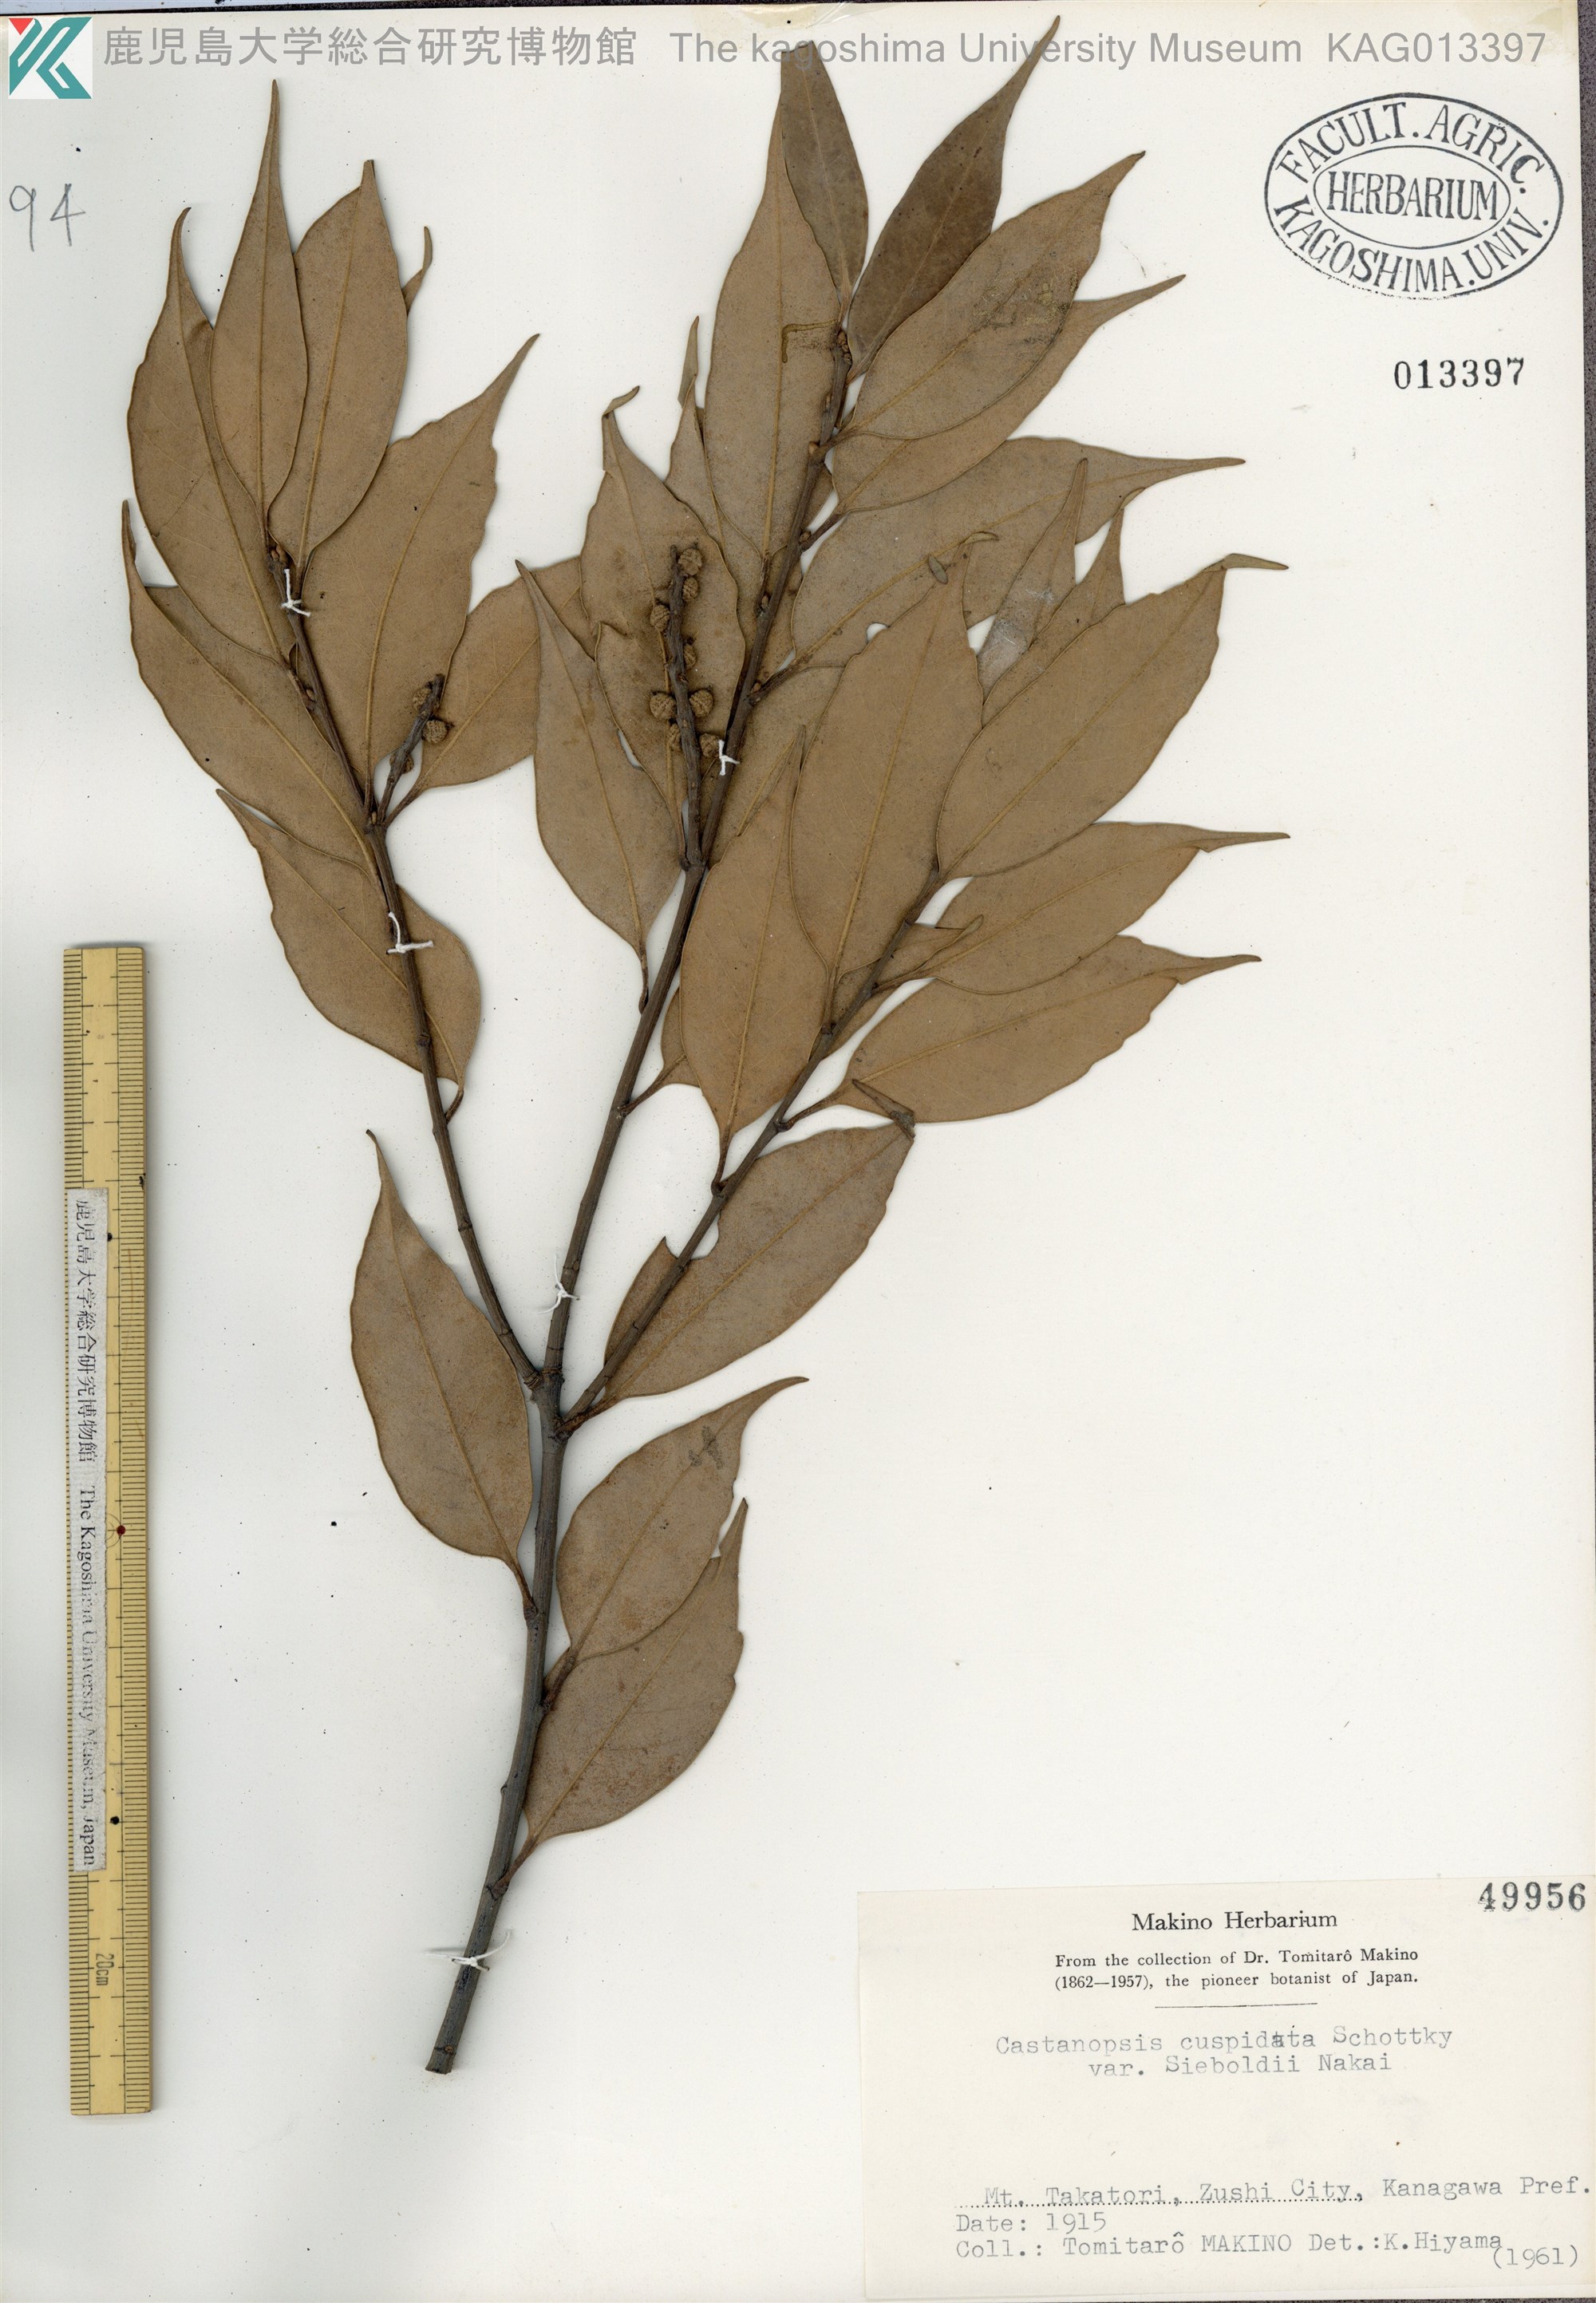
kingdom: Plantae
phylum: Tracheophyta
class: Magnoliopsida
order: Fagales
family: Fagaceae
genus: Castanopsis
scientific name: Castanopsis sieboldii
